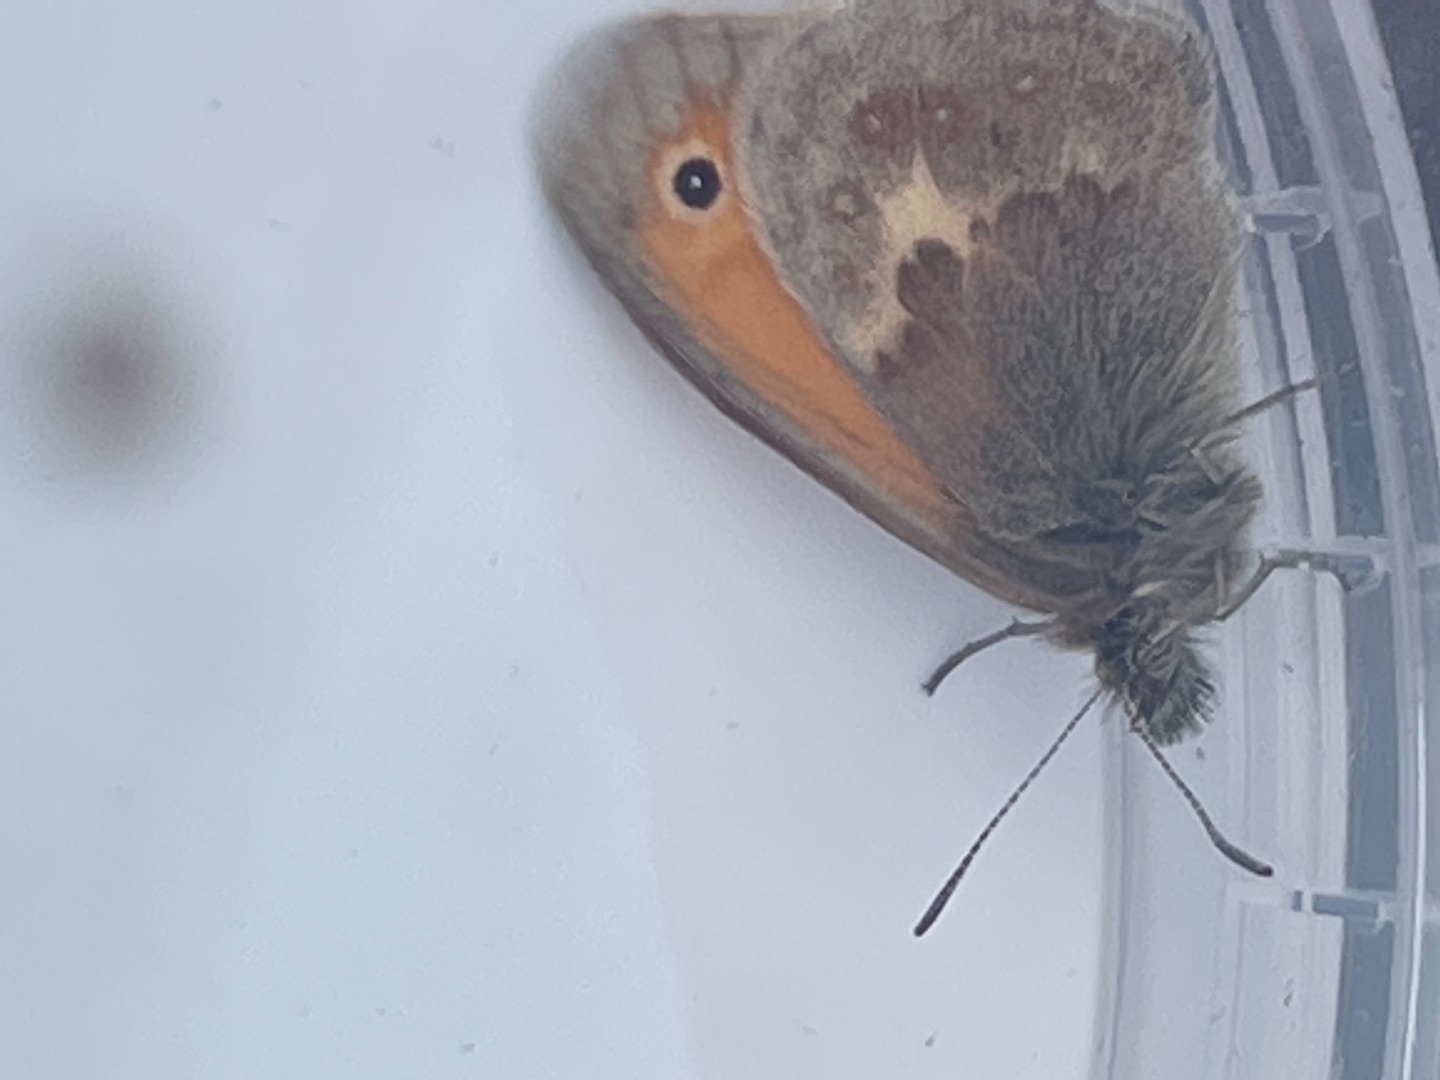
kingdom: Animalia
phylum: Arthropoda
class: Insecta
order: Lepidoptera
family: Nymphalidae
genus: Coenonympha
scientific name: Coenonympha pamphilus
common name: Okkergul randøje
